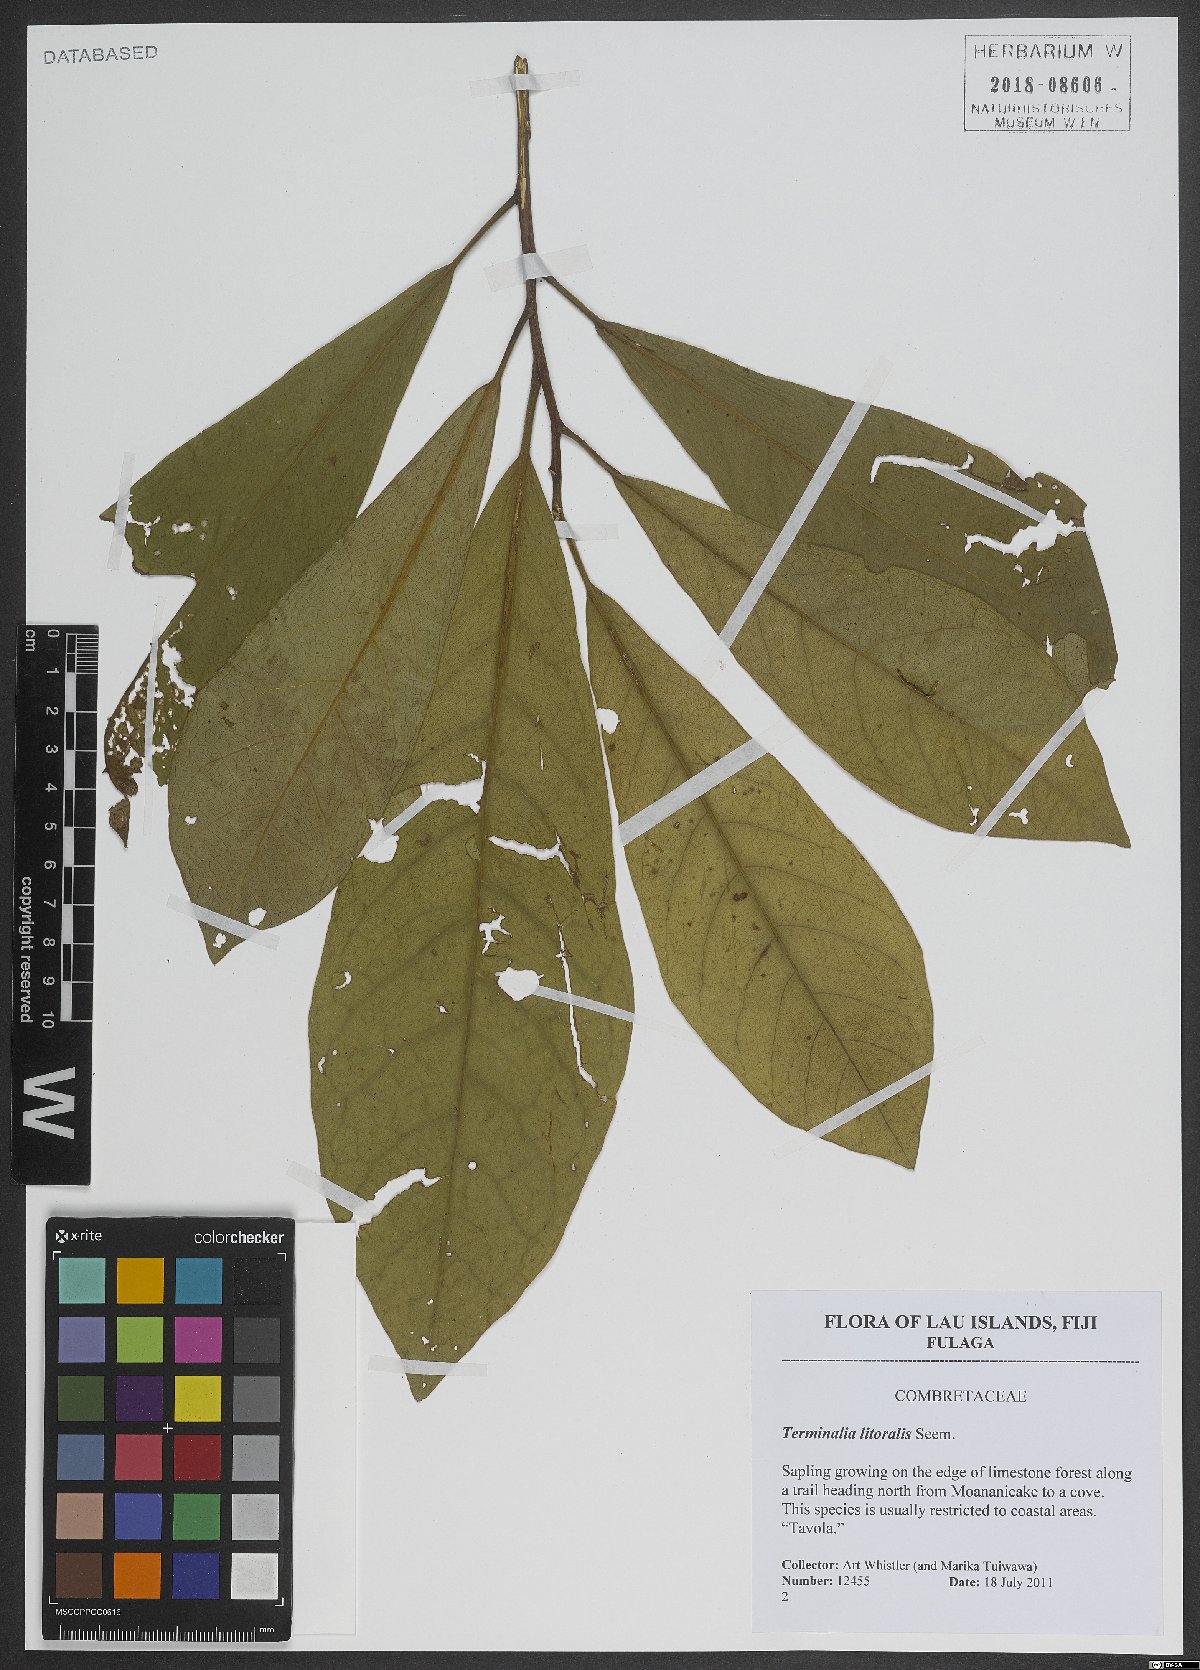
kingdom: Plantae
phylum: Tracheophyta
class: Magnoliopsida
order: Myrtales
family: Combretaceae
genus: Terminalia
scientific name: Terminalia litoralis
